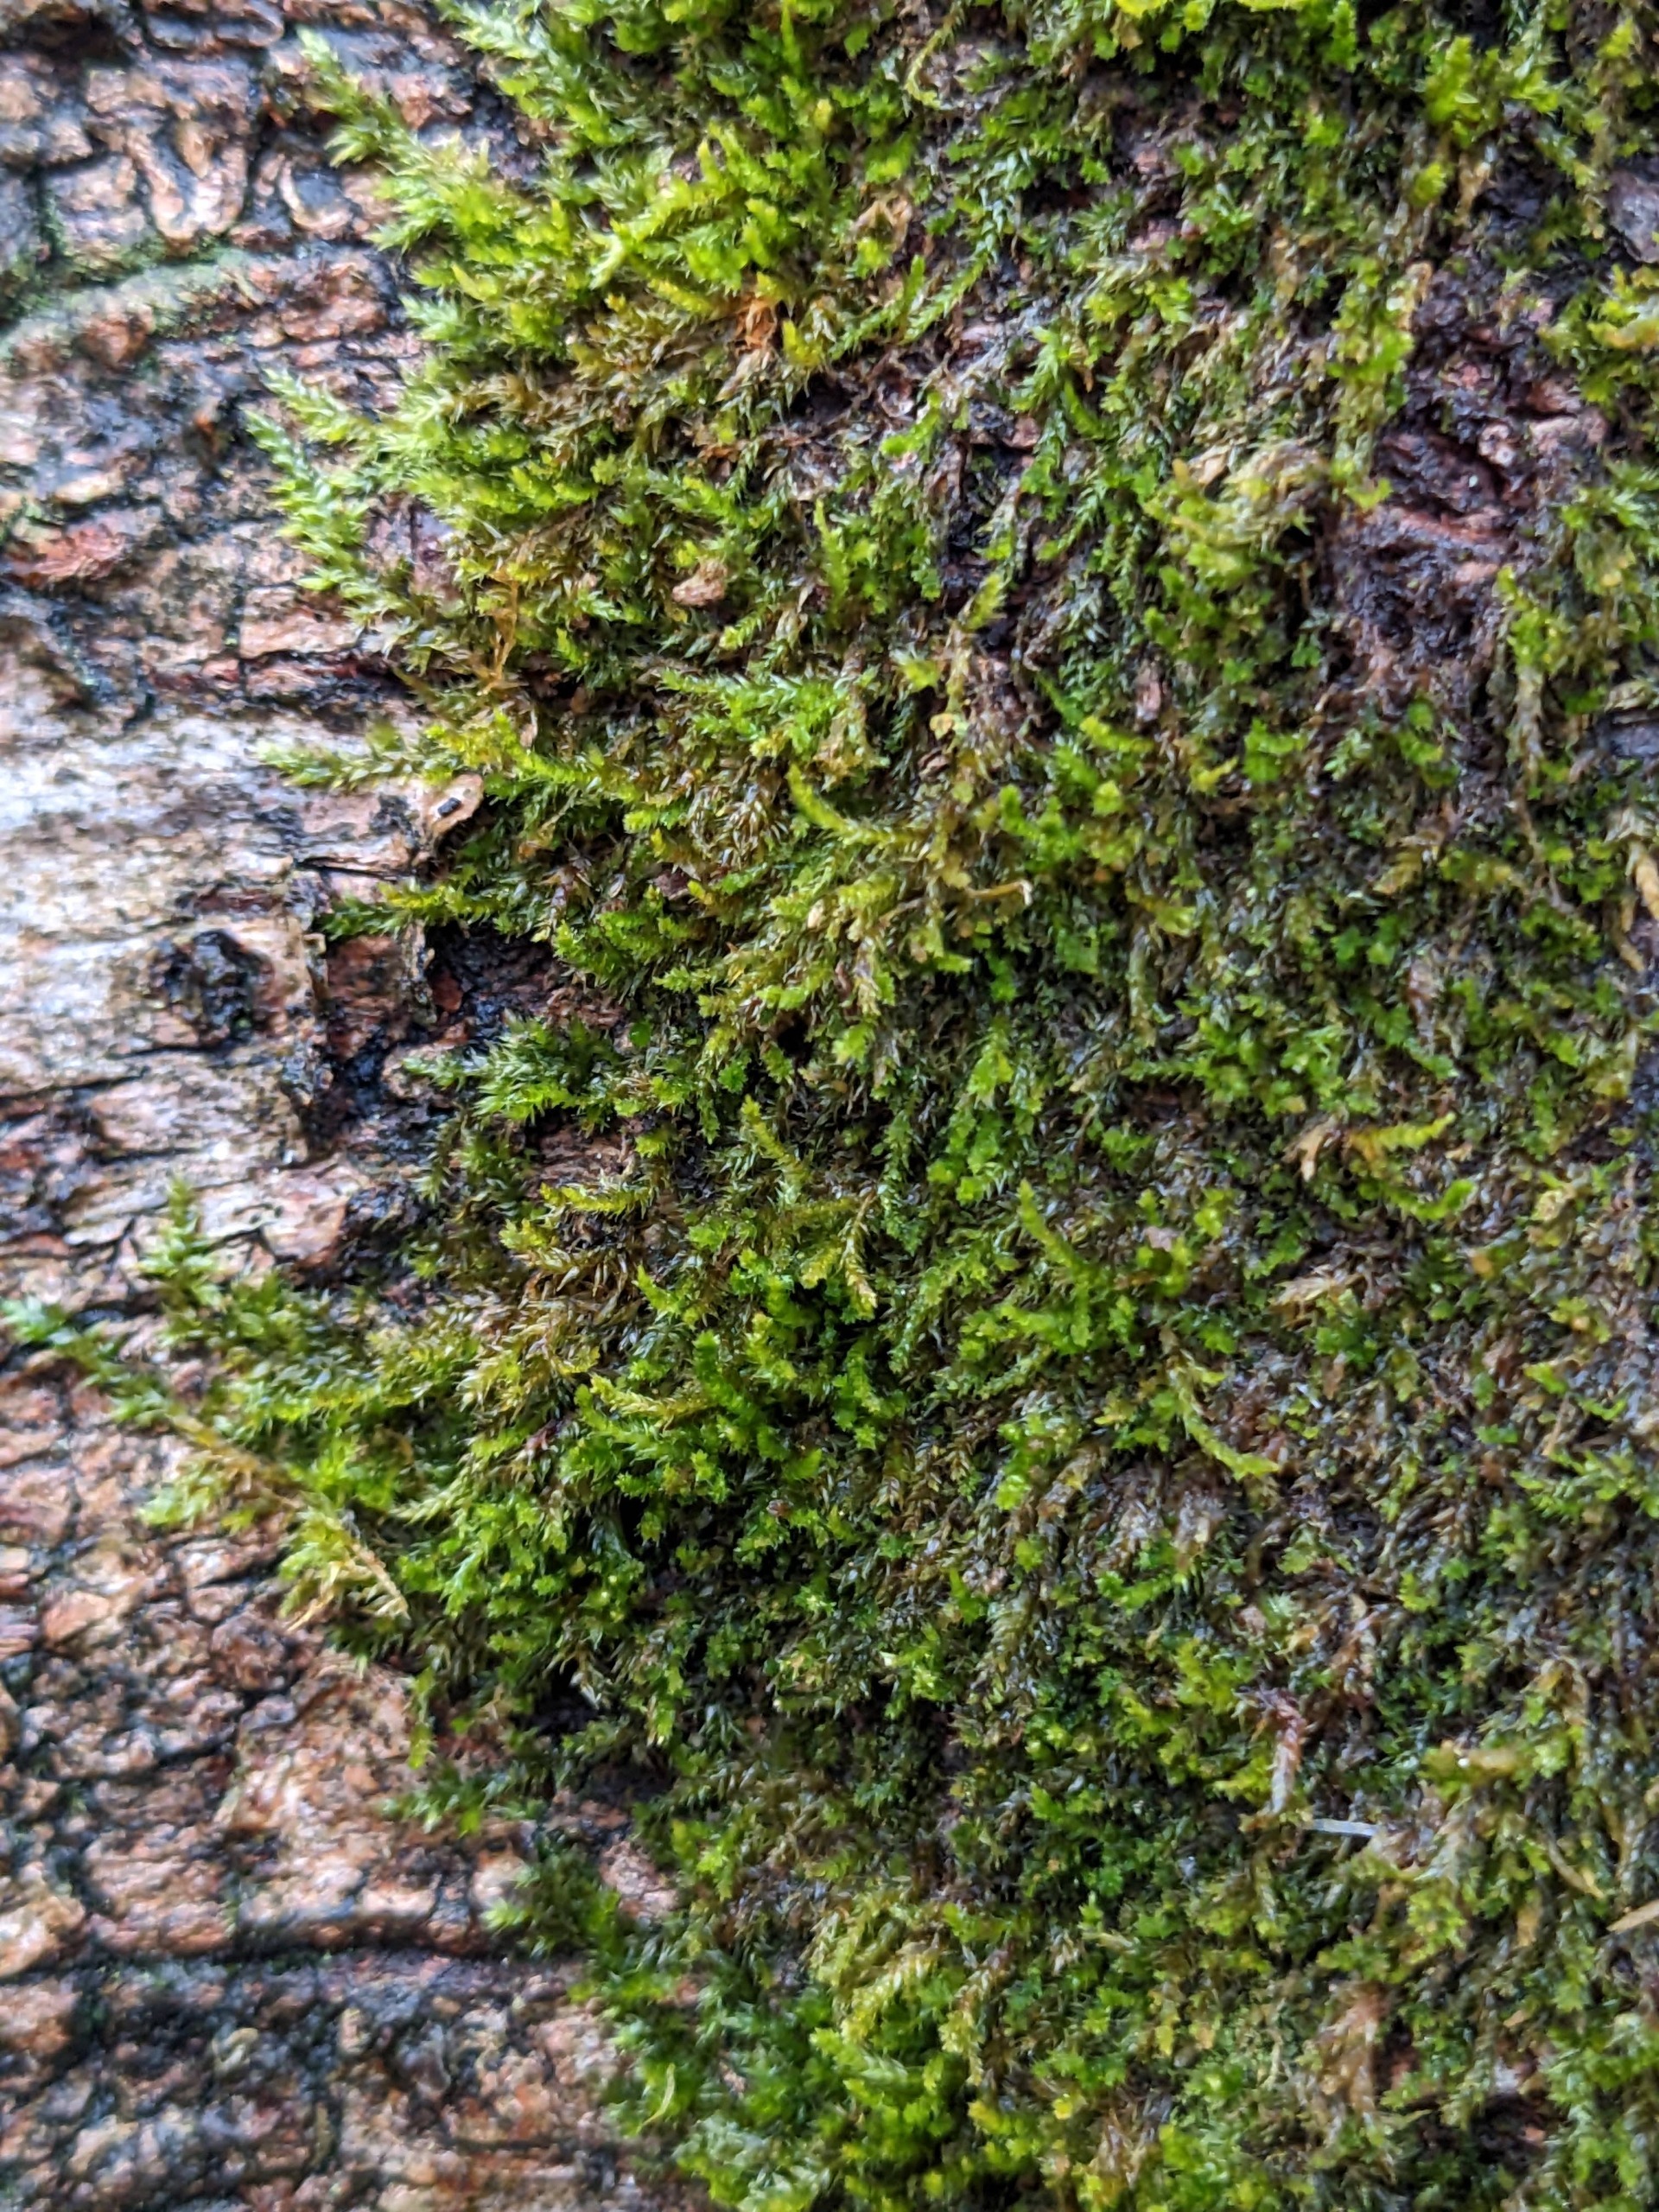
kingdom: Plantae
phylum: Bryophyta
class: Bryopsida
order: Hypnales
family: Pylaisiadelphaceae
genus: Platygyrium
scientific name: Platygyrium repens
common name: Mørk yngleknop
